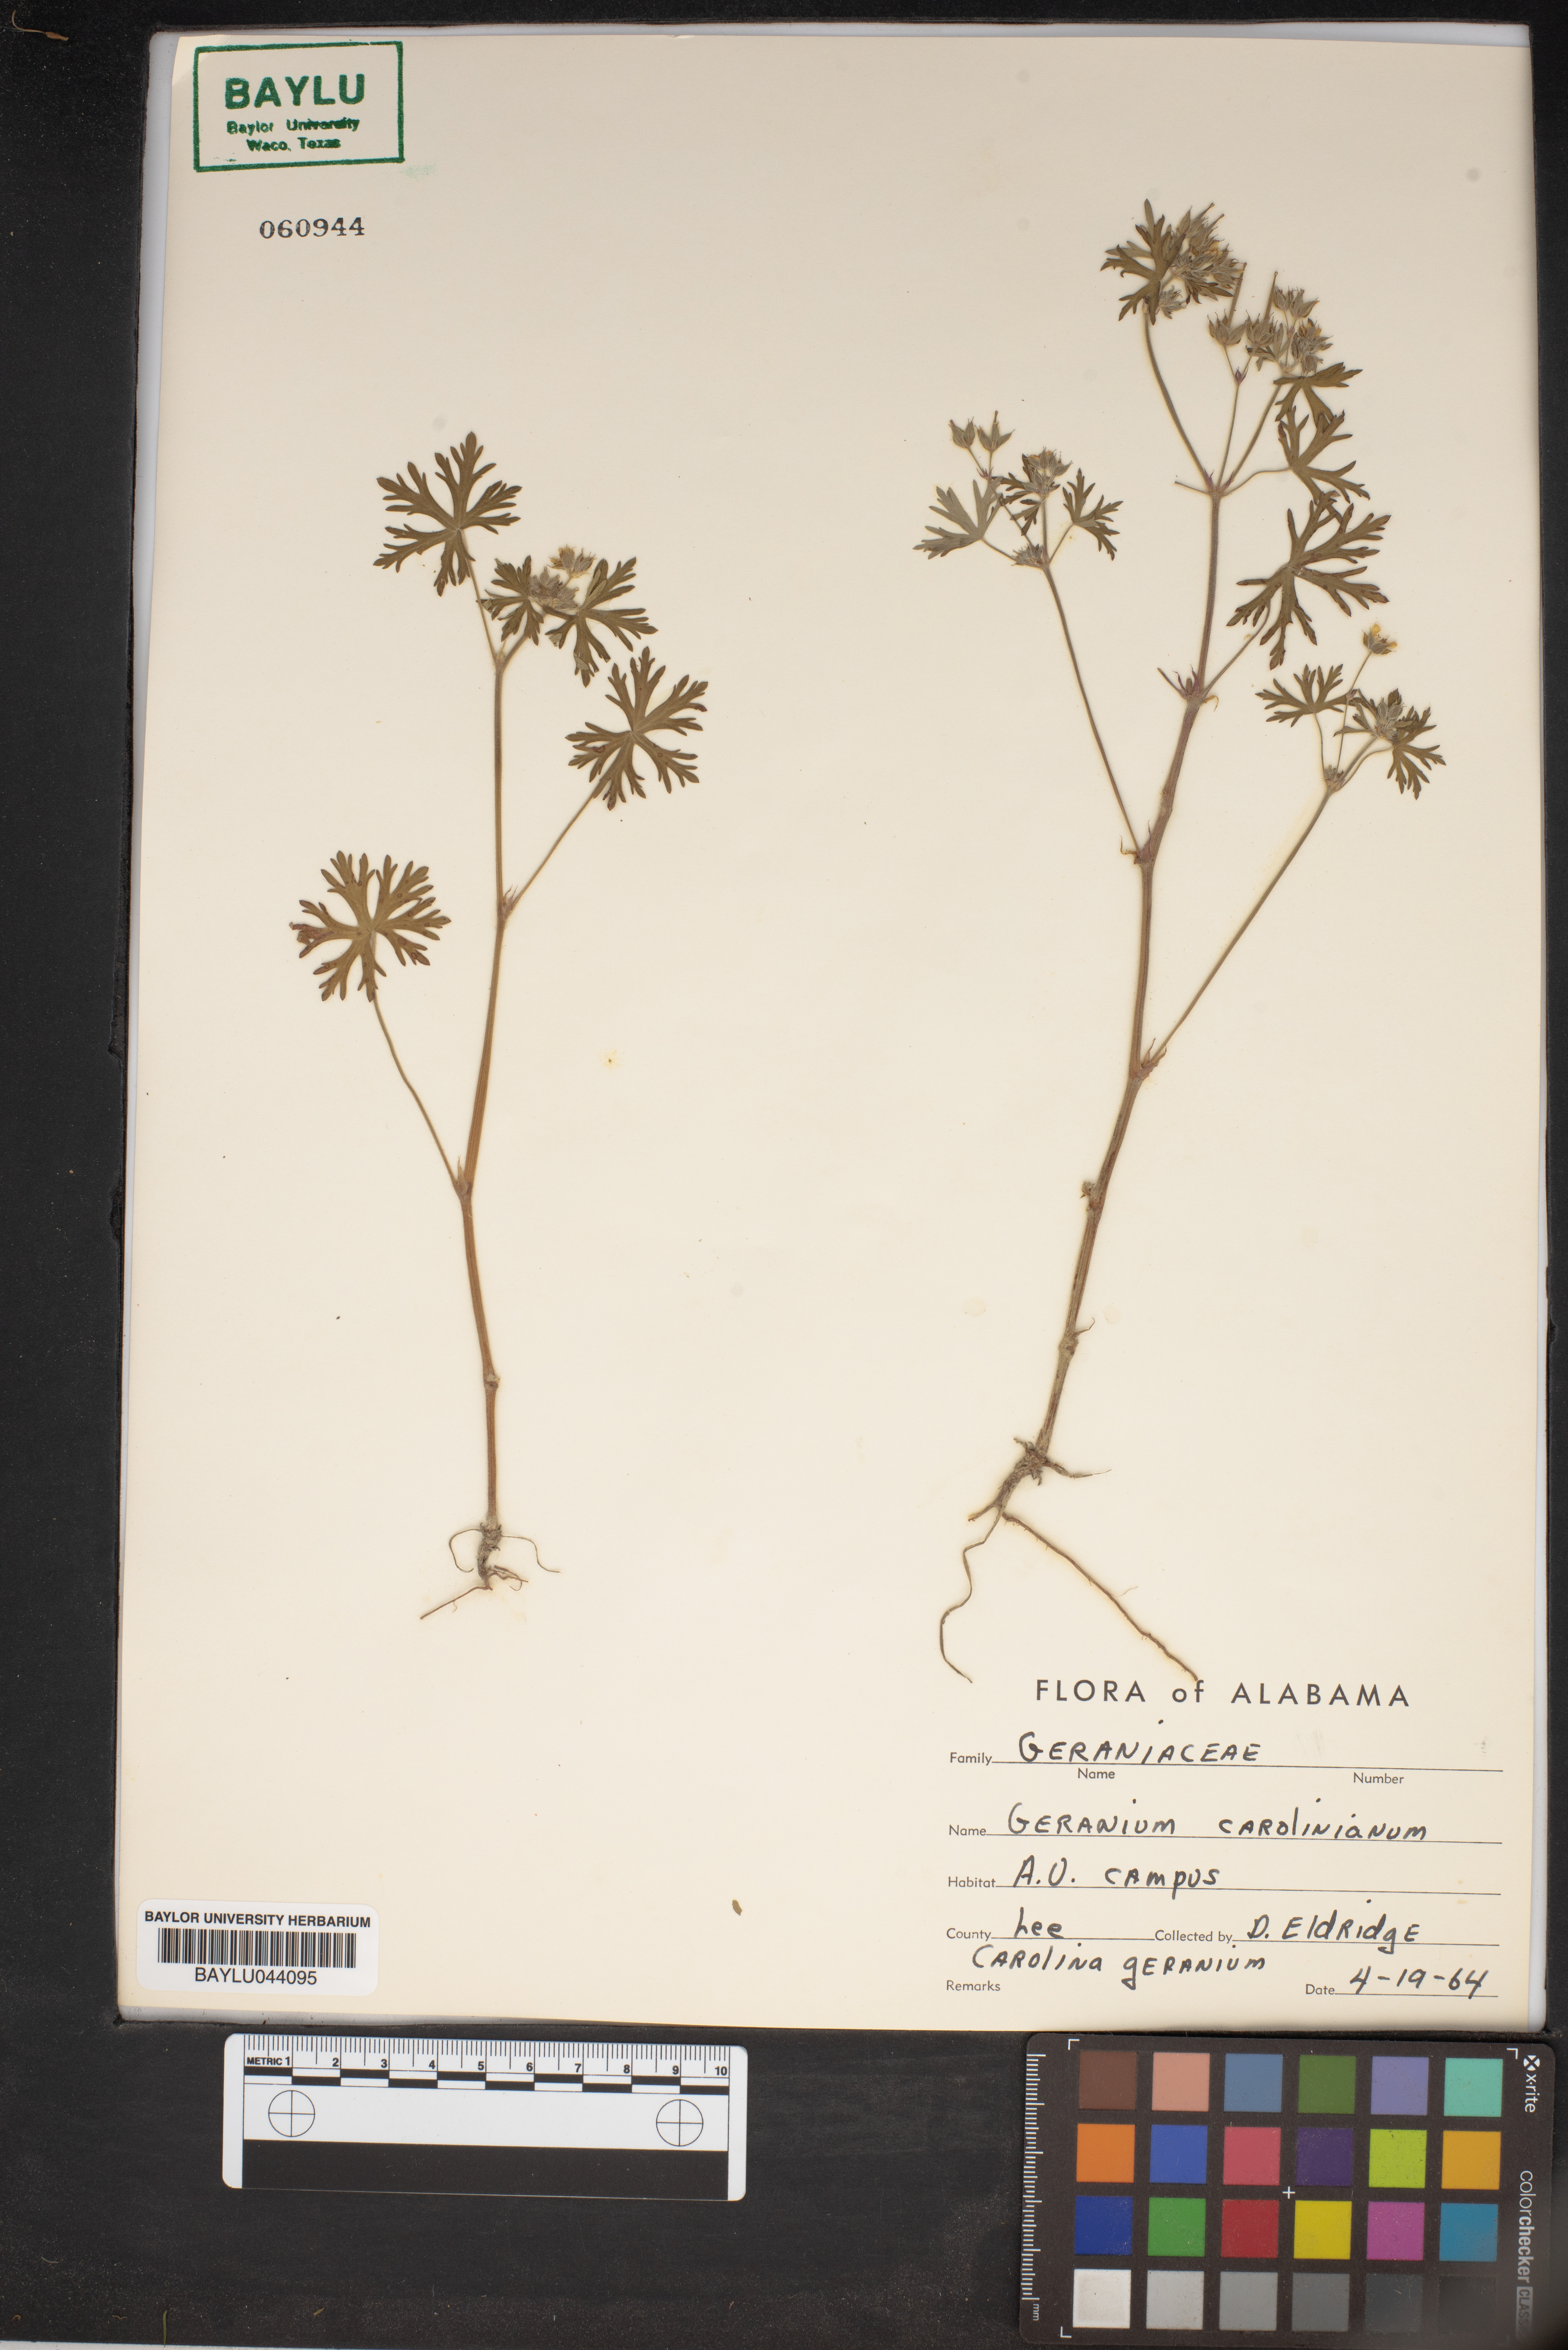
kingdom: Plantae
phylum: Tracheophyta
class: Magnoliopsida
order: Geraniales
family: Geraniaceae
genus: Geranium
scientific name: Geranium carolinianum
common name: Carolina crane's-bill
